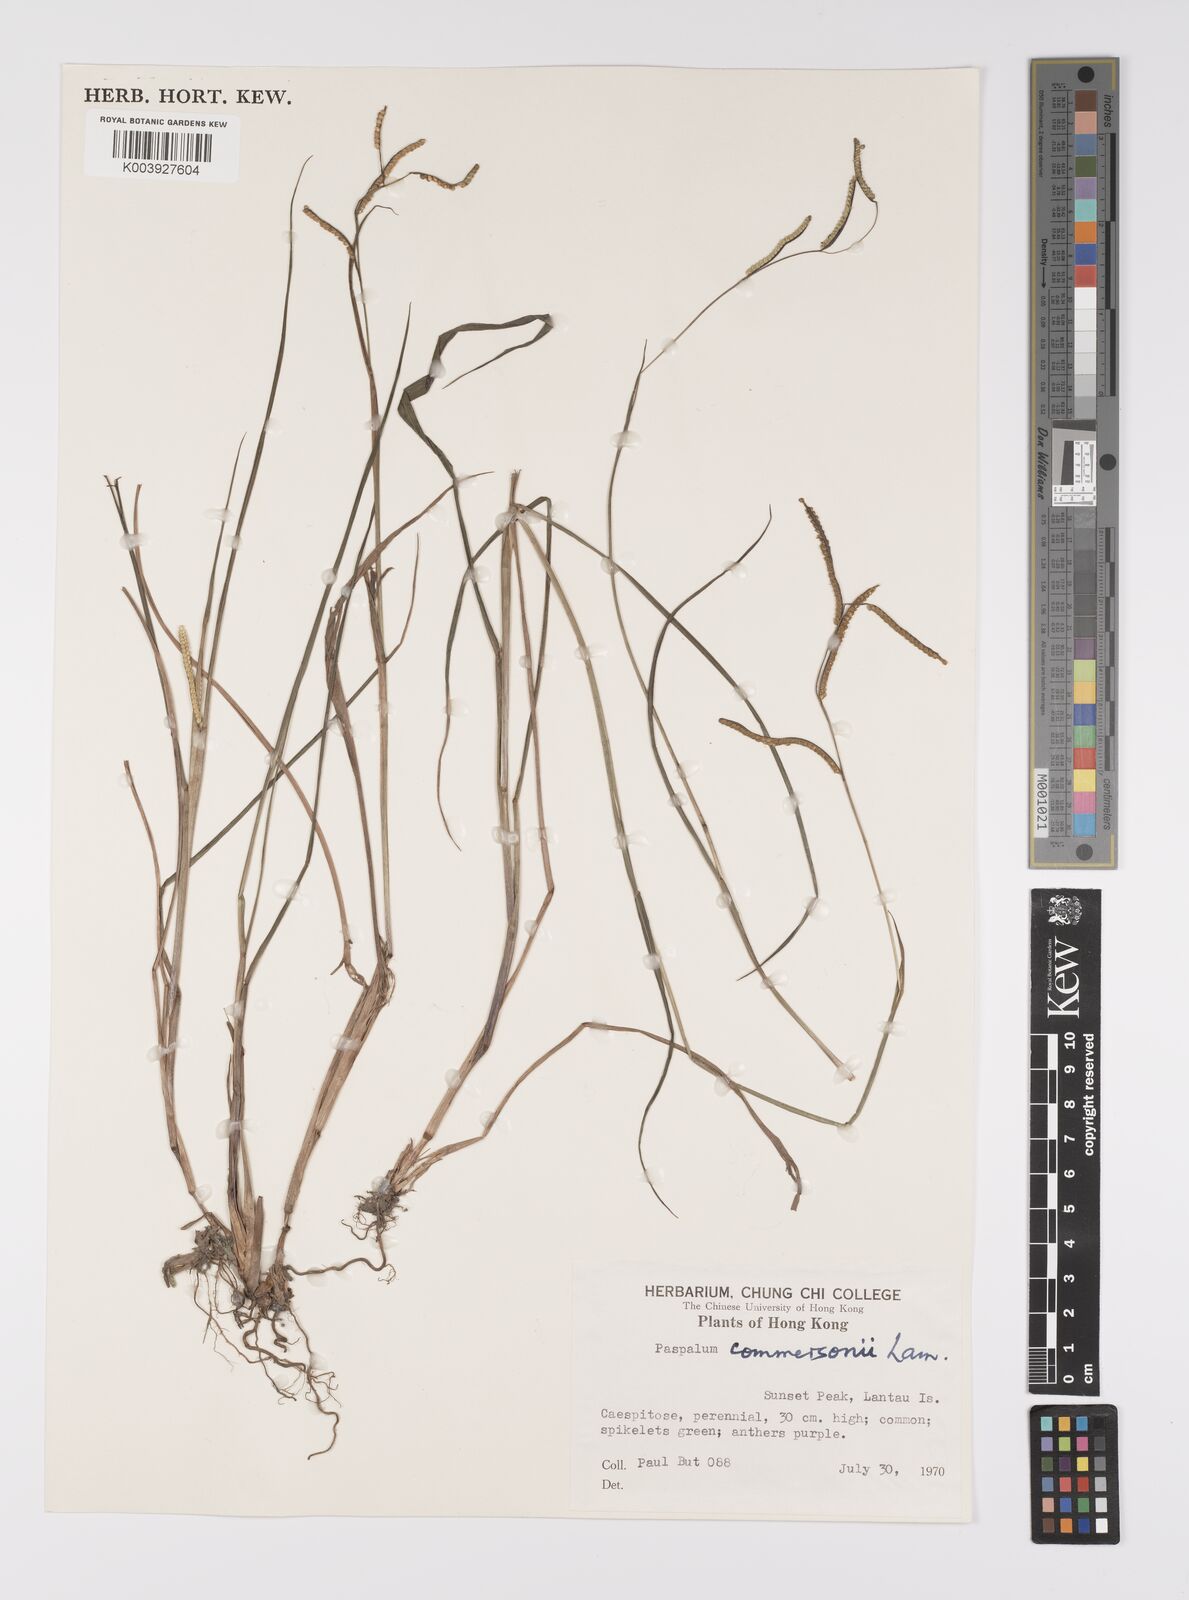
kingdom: Plantae
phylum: Tracheophyta
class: Liliopsida
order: Poales
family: Poaceae
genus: Paspalum
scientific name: Paspalum scrobiculatum
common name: Kodo millet
